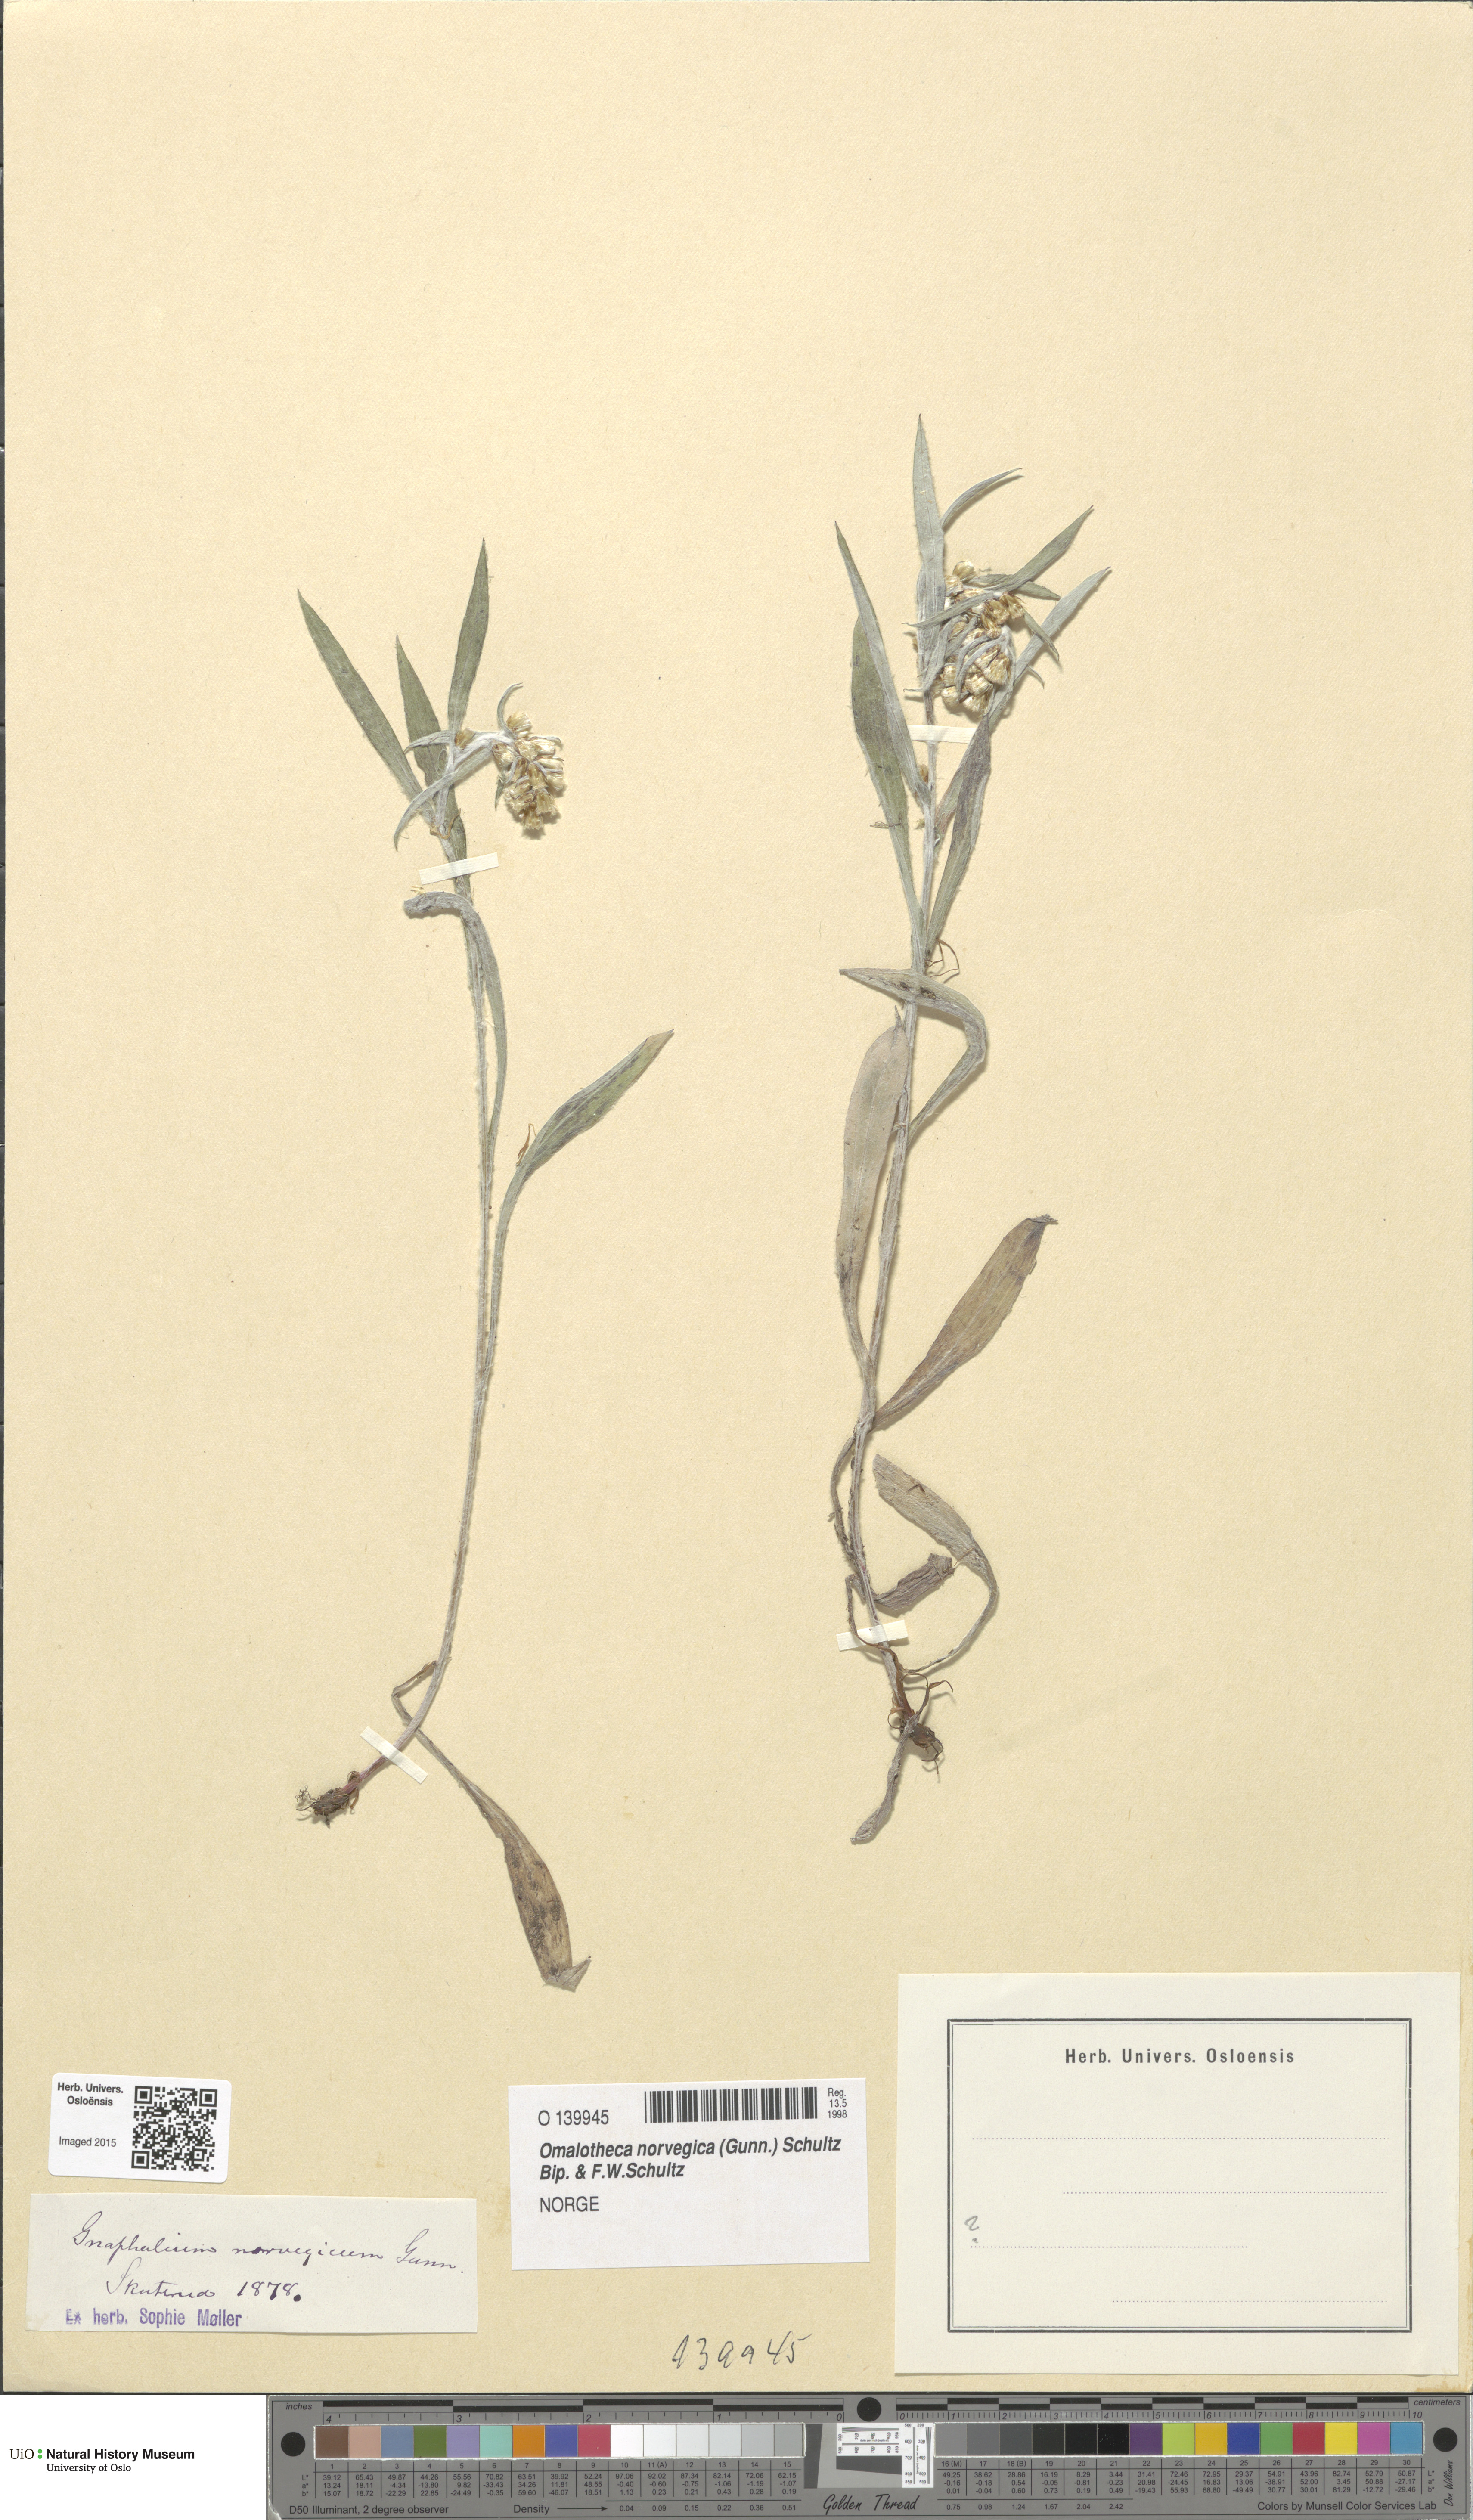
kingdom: Plantae
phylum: Tracheophyta
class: Magnoliopsida
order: Asterales
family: Asteraceae
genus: Omalotheca
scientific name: Omalotheca norvegica
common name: Norwegian arctic-cudweed
